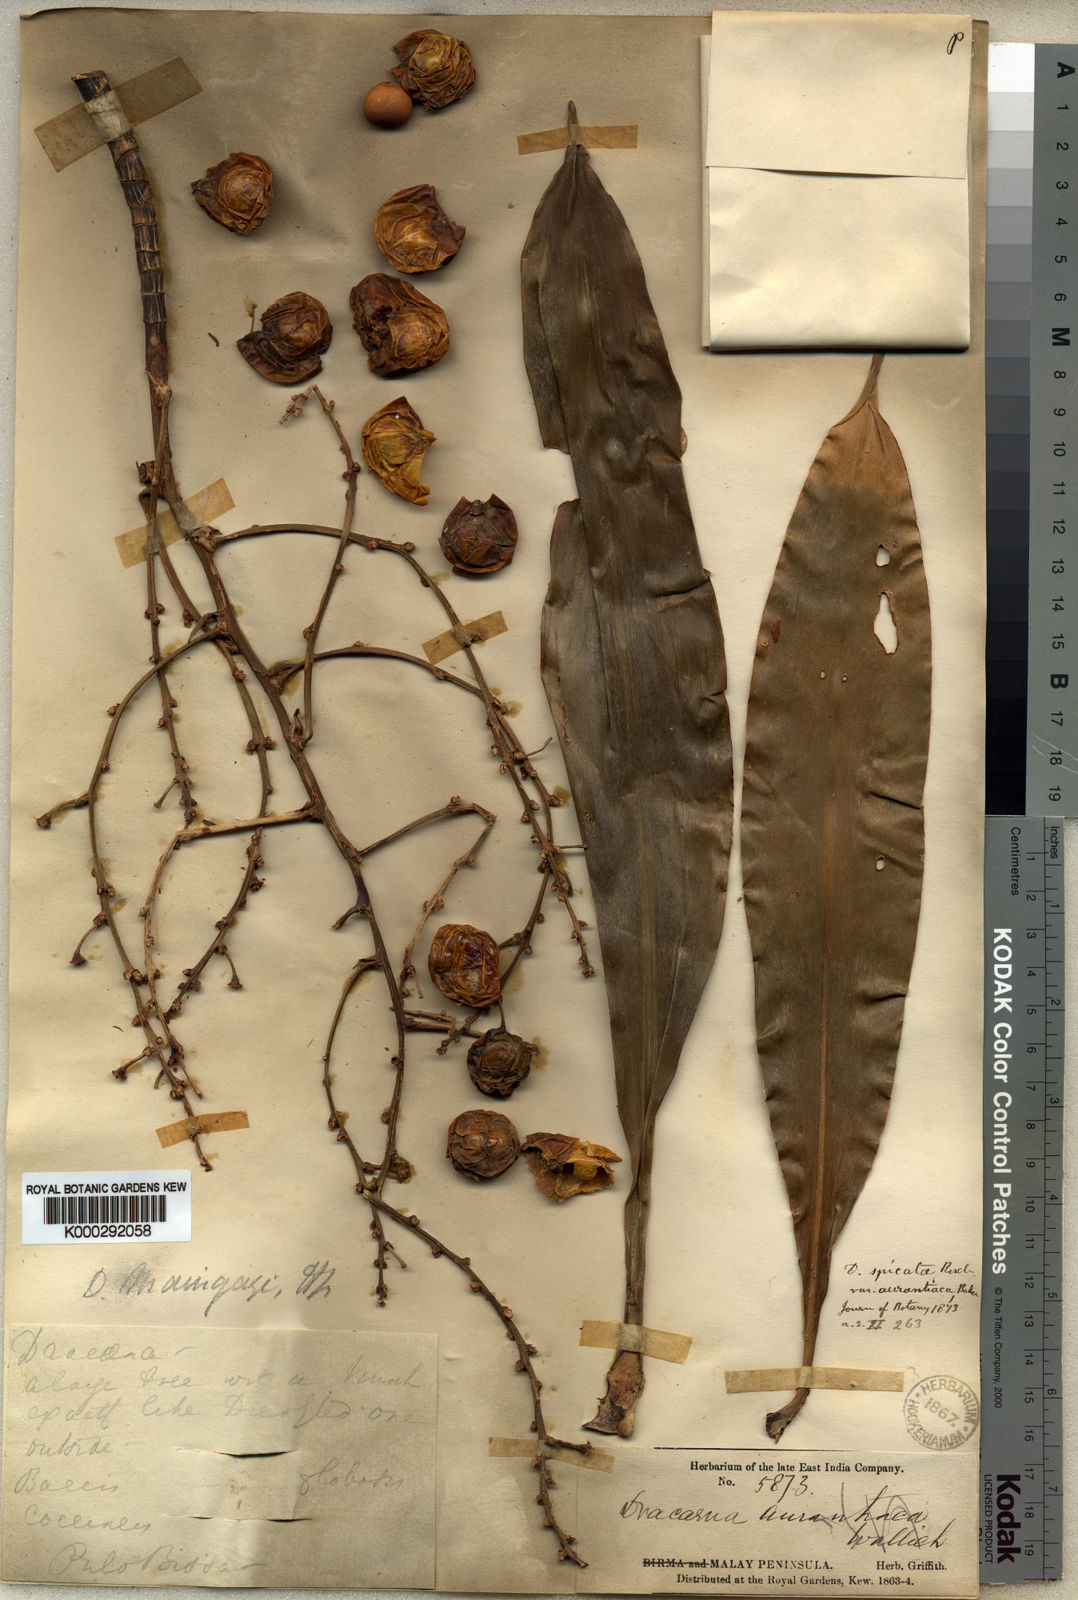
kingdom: Plantae
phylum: Tracheophyta
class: Liliopsida
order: Asparagales
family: Asparagaceae
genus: Dracaena
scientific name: Dracaena maingayi
